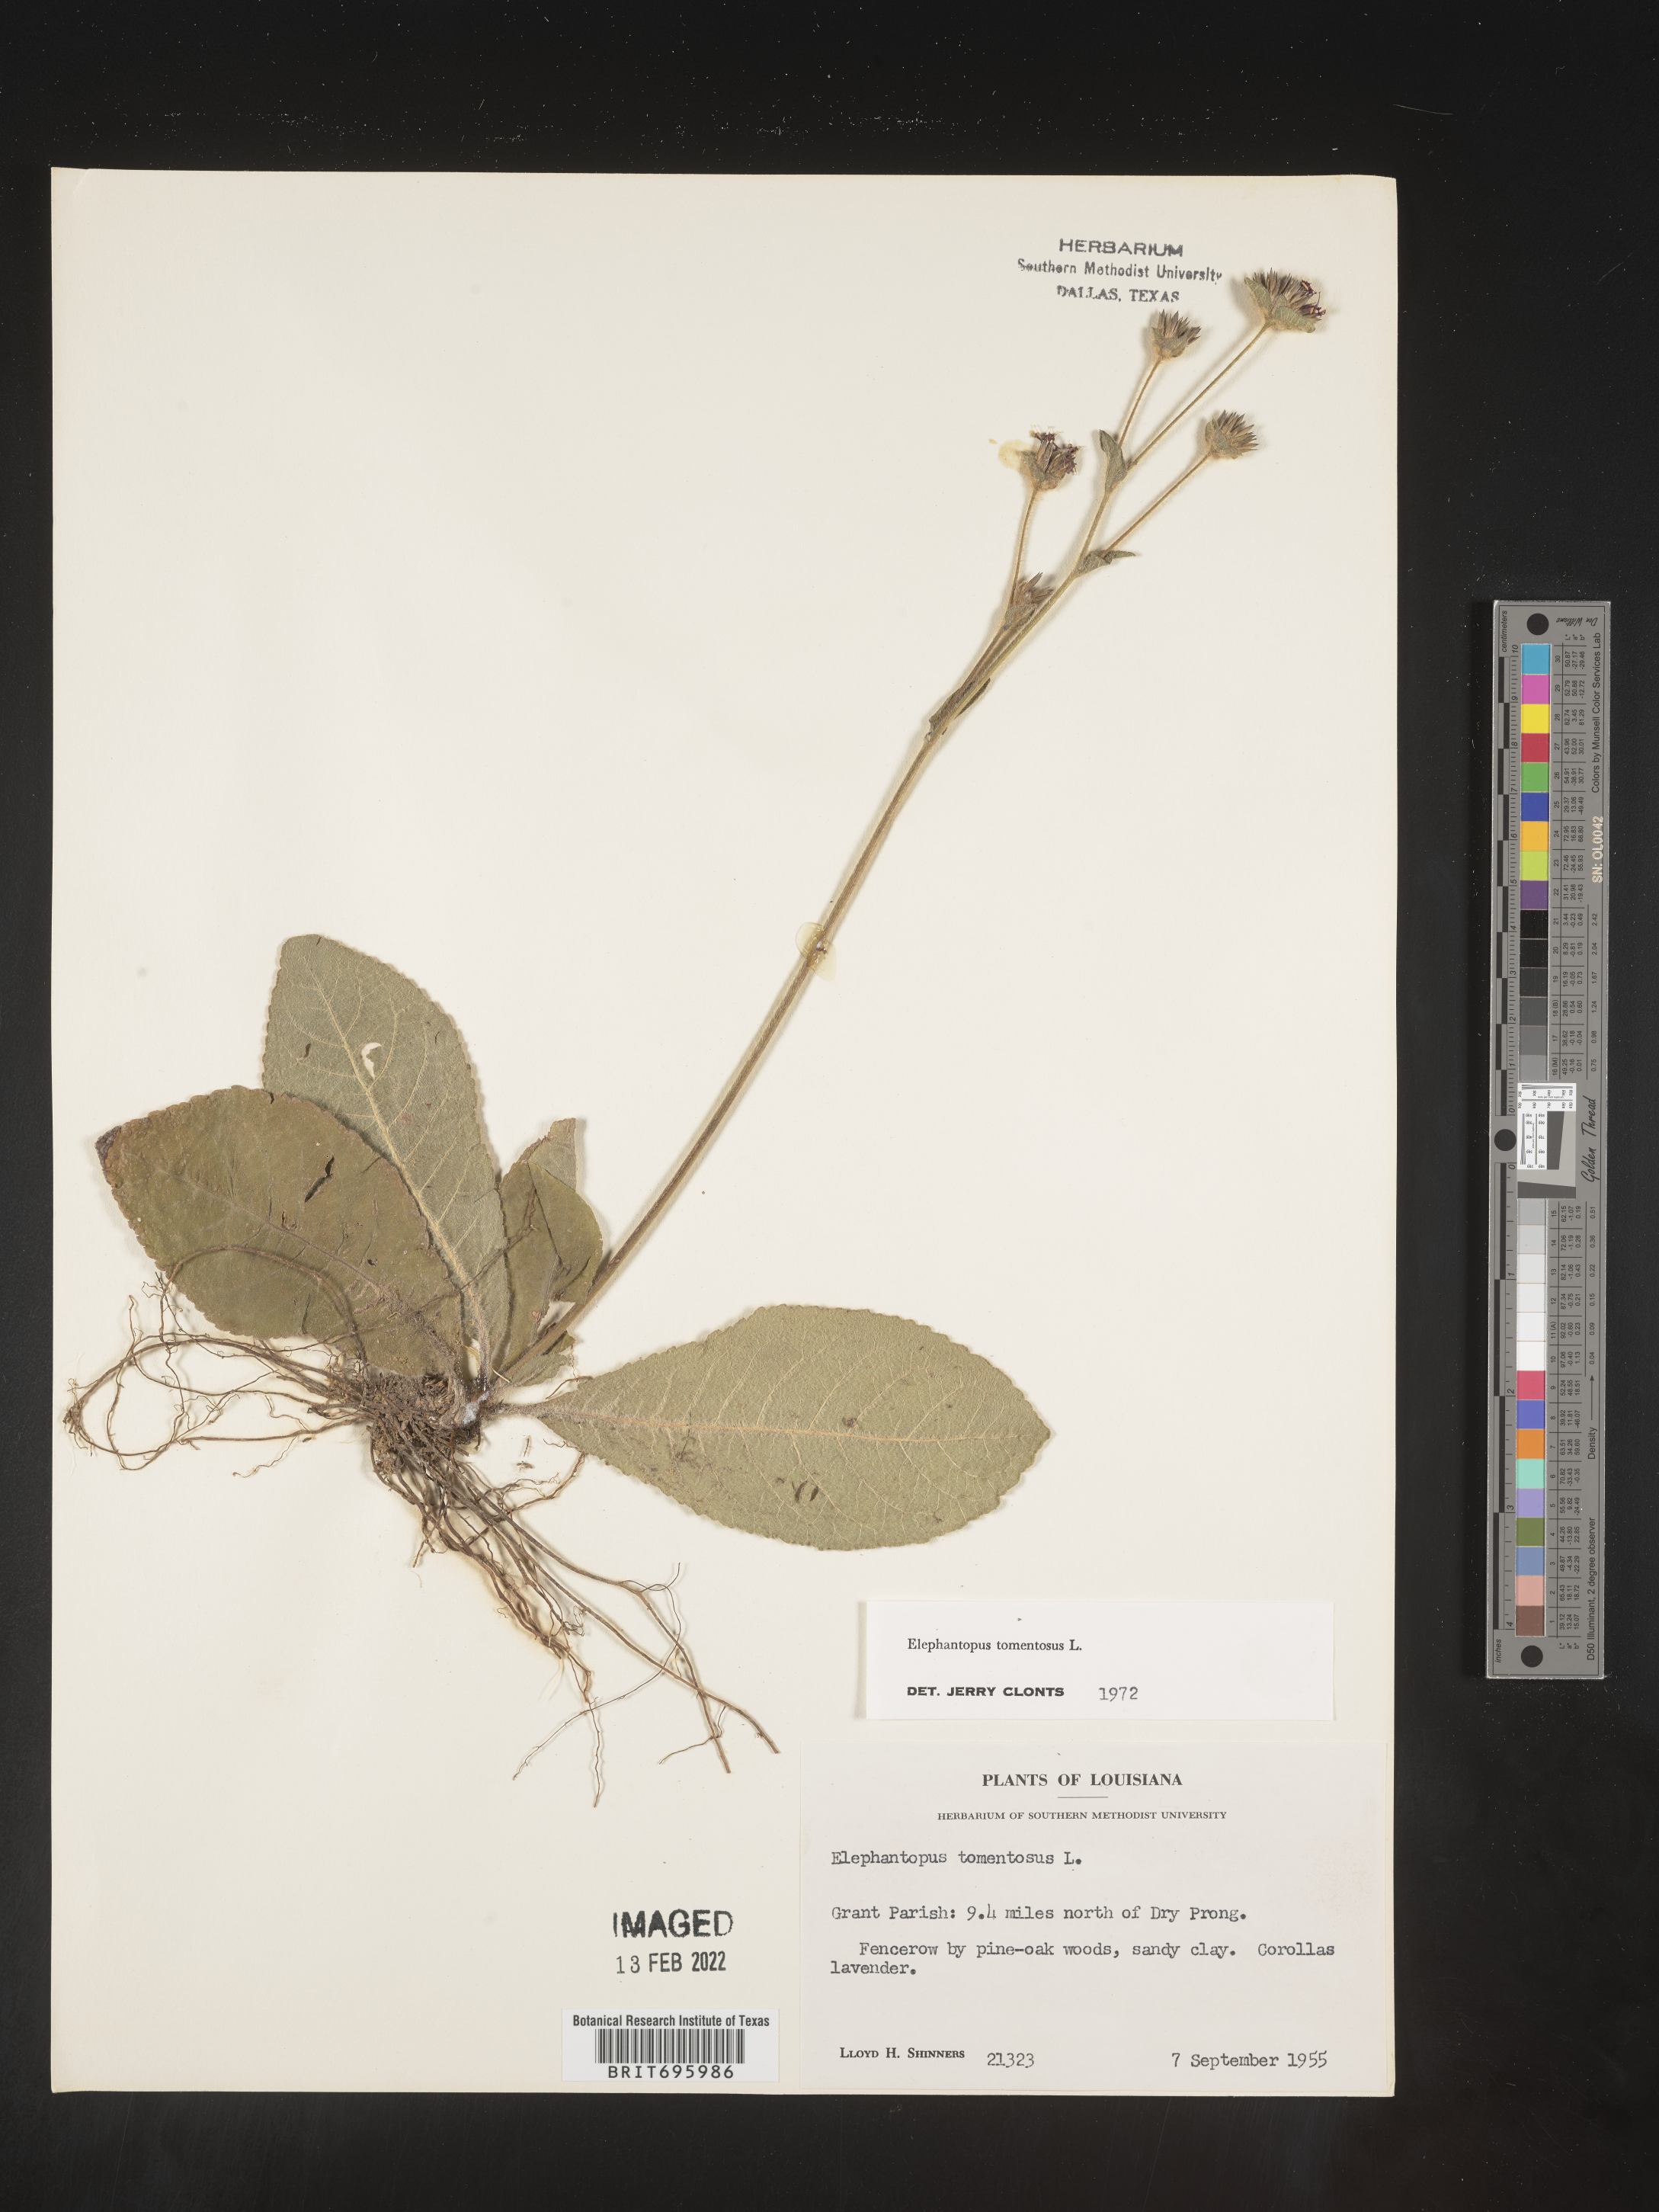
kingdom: Plantae
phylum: Tracheophyta
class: Magnoliopsida
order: Asterales
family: Asteraceae
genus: Elephantopus
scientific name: Elephantopus tomentosus
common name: Tobacco-weed
